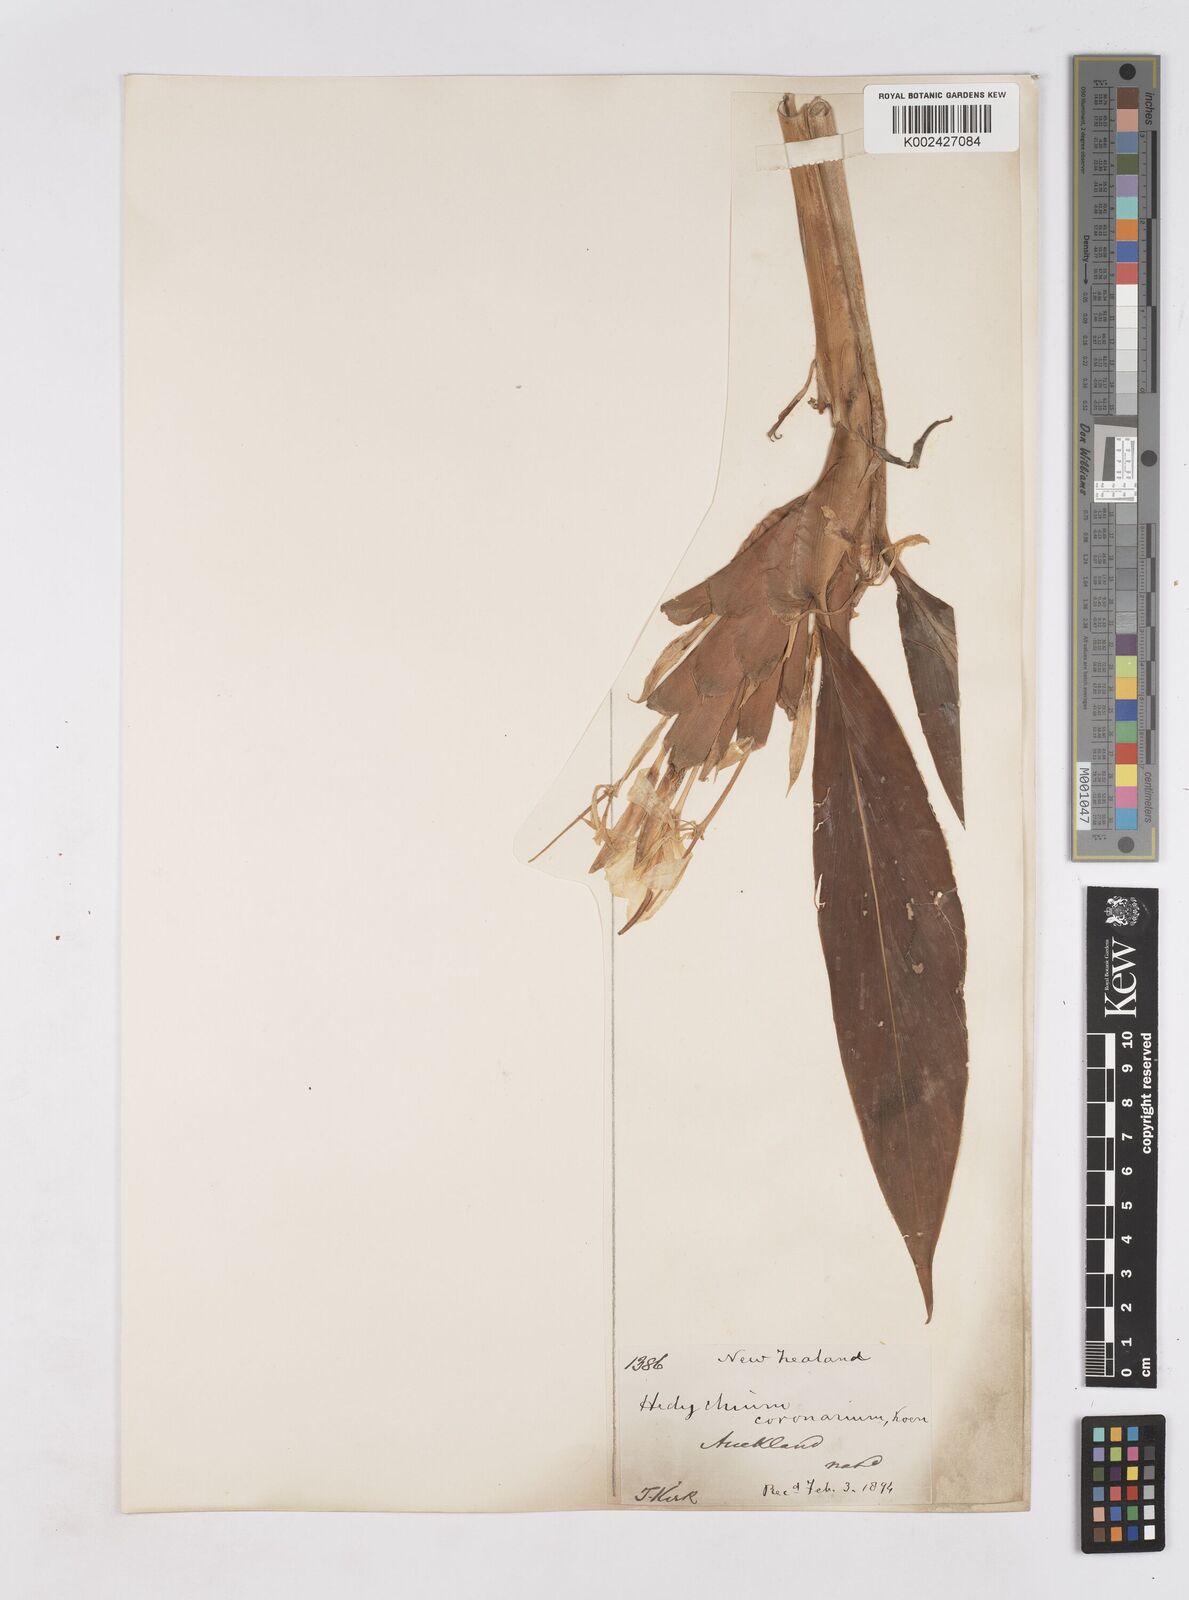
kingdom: Plantae
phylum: Tracheophyta
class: Liliopsida
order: Zingiberales
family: Zingiberaceae
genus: Hedychium
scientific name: Hedychium coronarium
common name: White garland-lily
